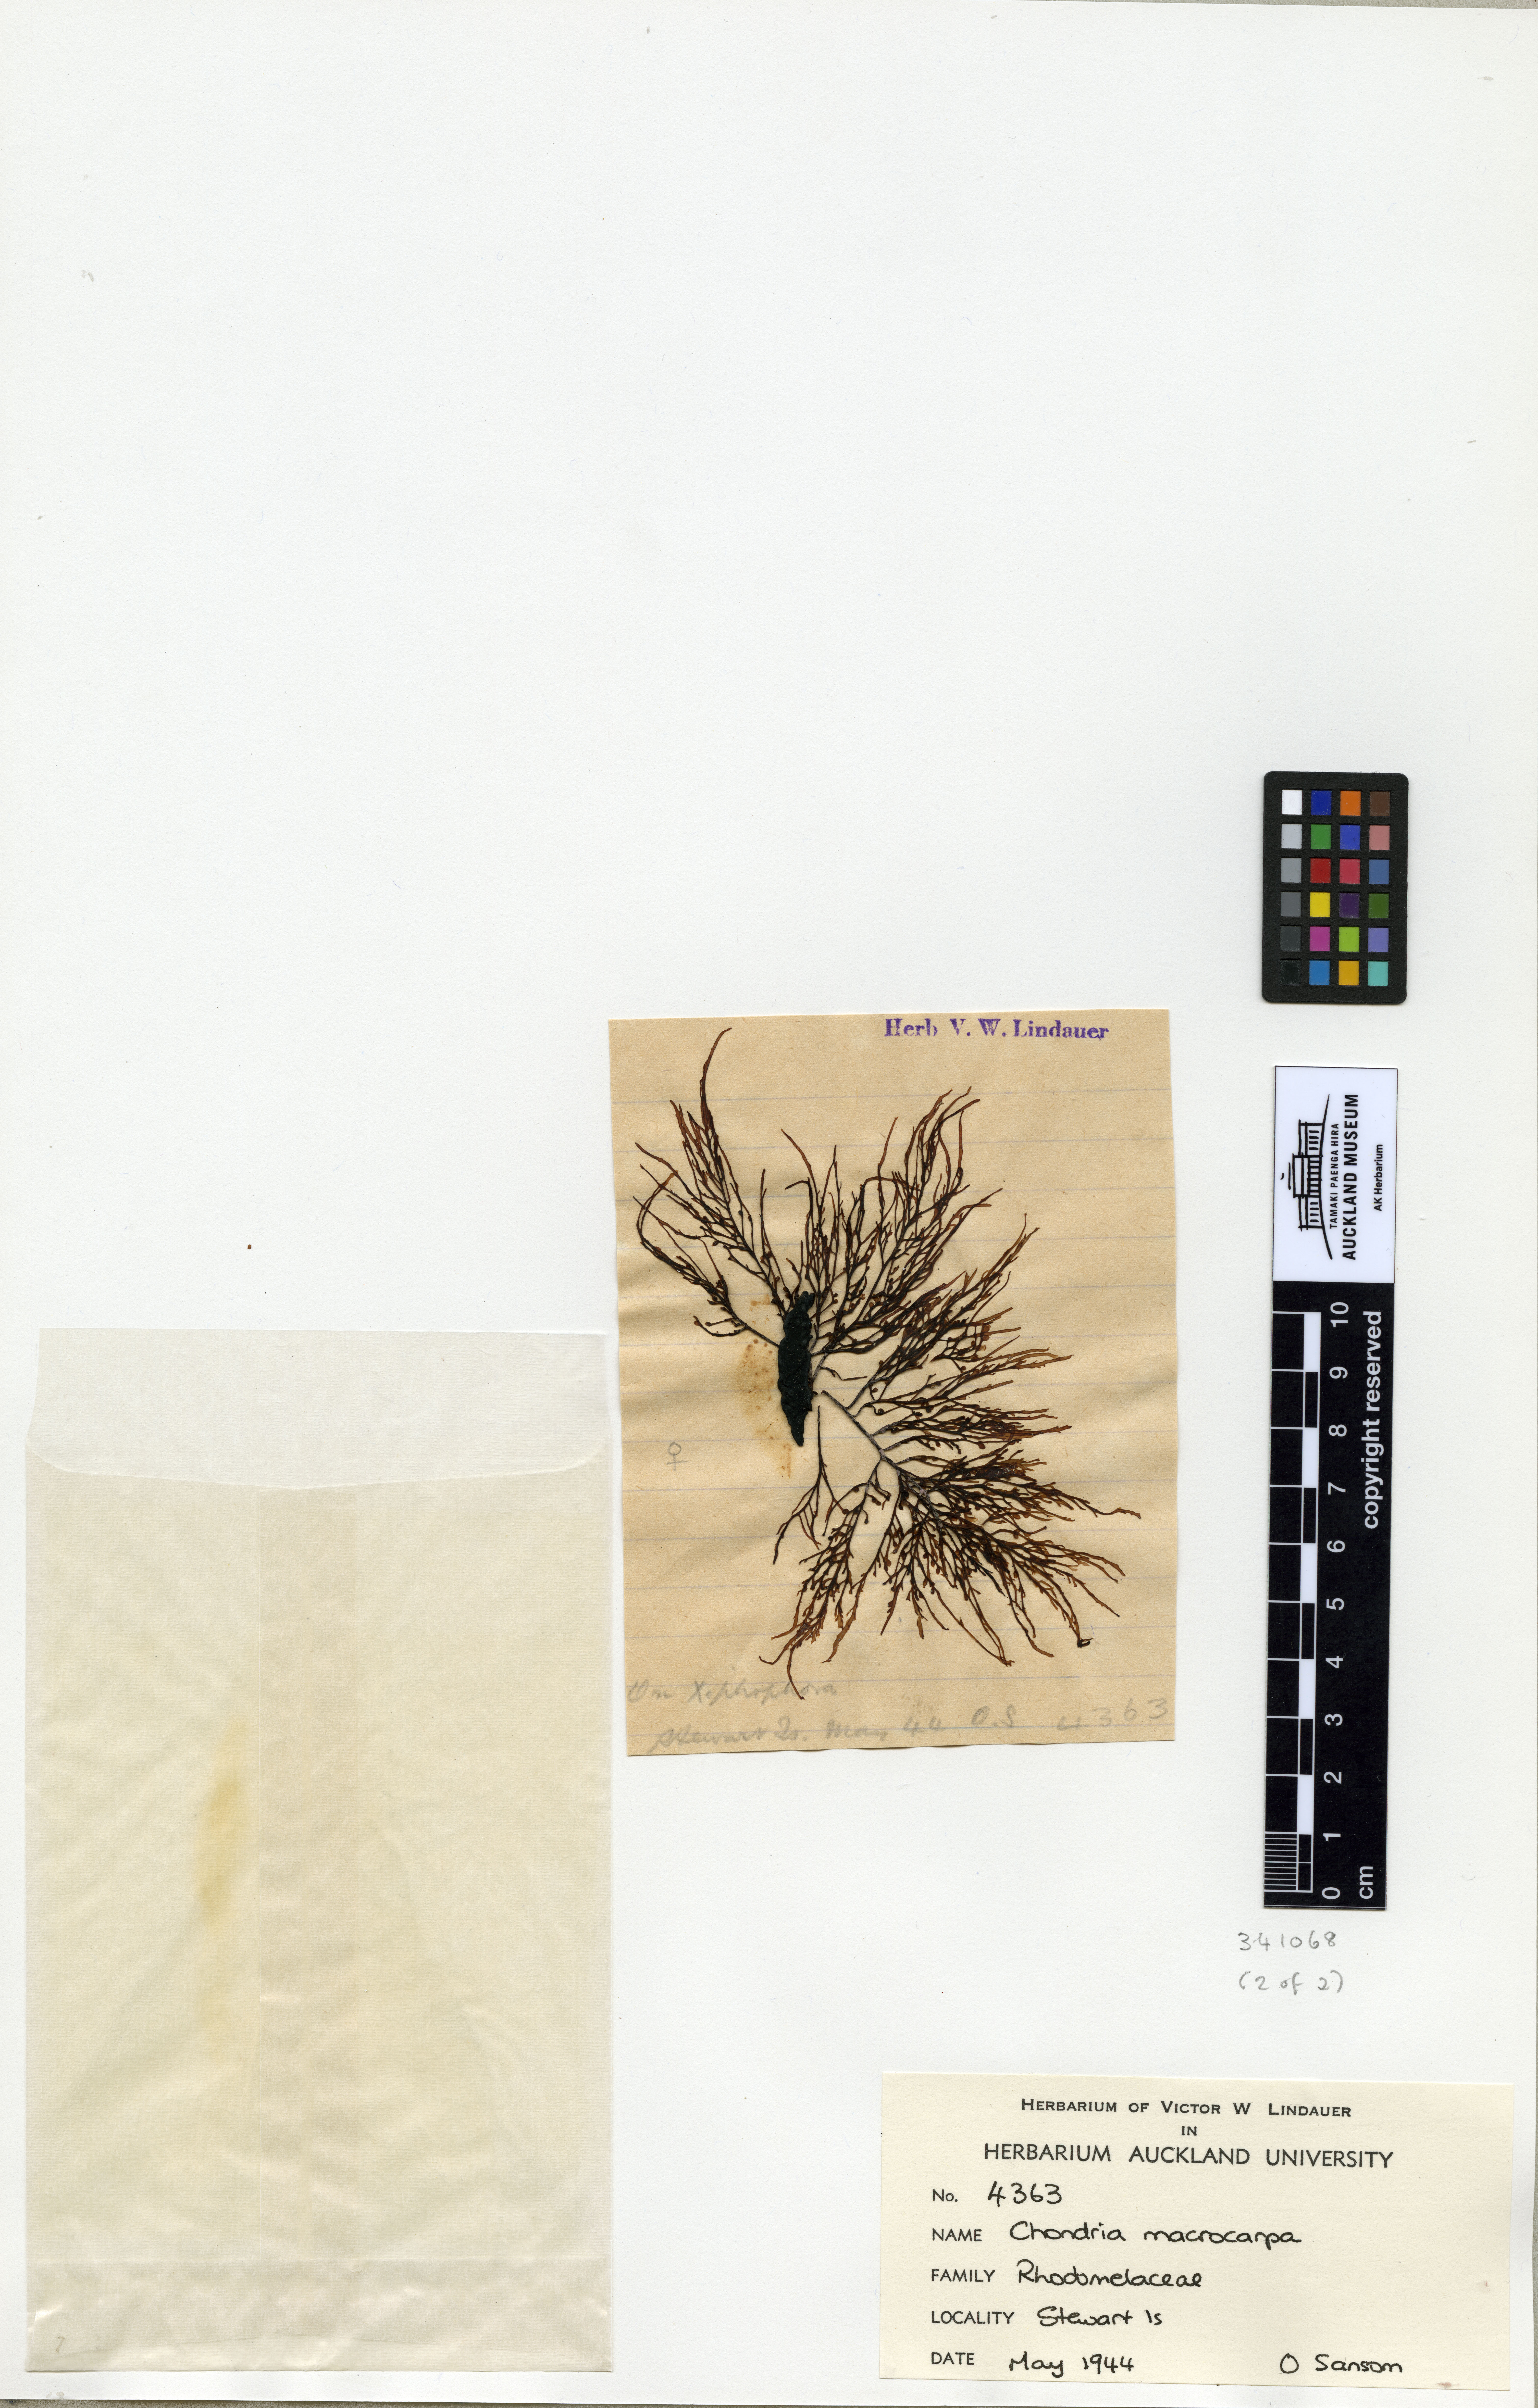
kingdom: Plantae
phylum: Rhodophyta
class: Florideophyceae
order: Ceramiales
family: Rhodomelaceae
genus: Chondria
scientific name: Chondria macrocarpa
